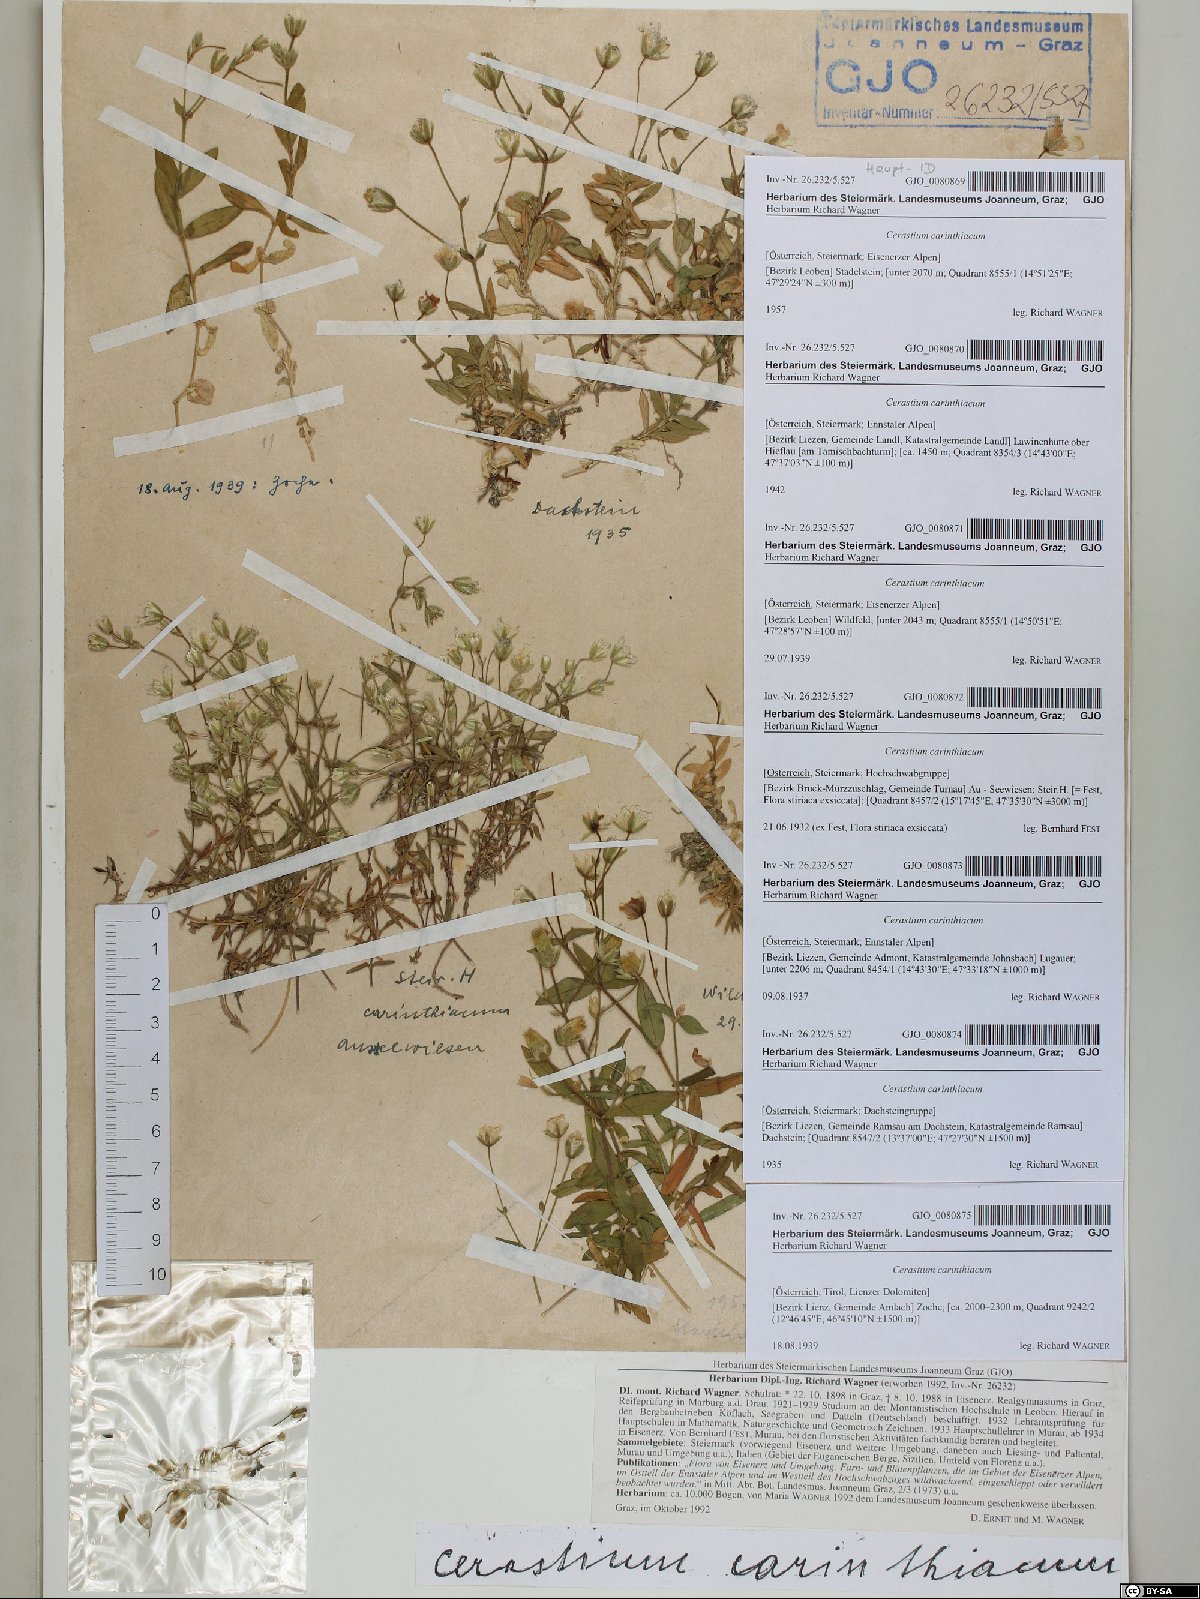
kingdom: Plantae
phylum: Tracheophyta
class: Magnoliopsida
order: Caryophyllales
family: Caryophyllaceae
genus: Cerastium
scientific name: Cerastium carinthiacum
